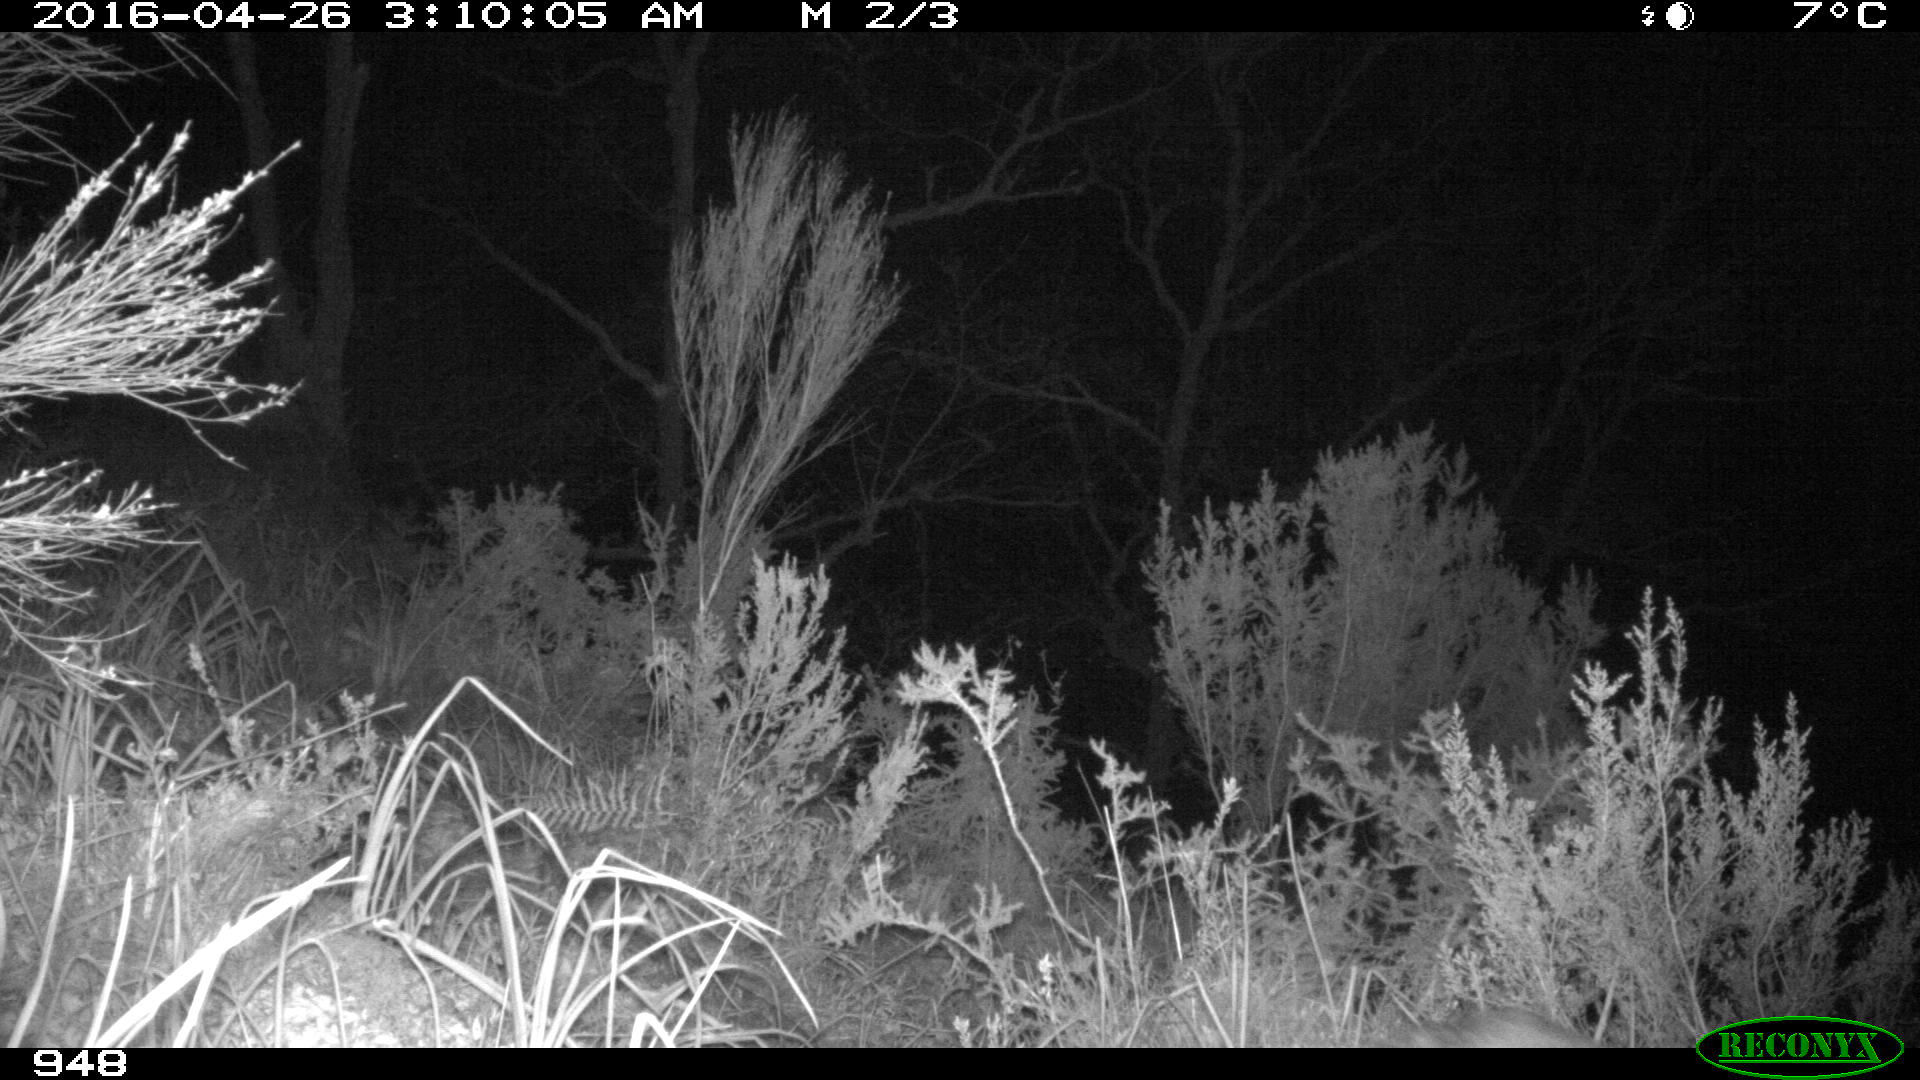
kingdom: Animalia
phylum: Chordata
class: Mammalia
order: Artiodactyla
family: Suidae
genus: Sus
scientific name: Sus scrofa
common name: Wild boar
